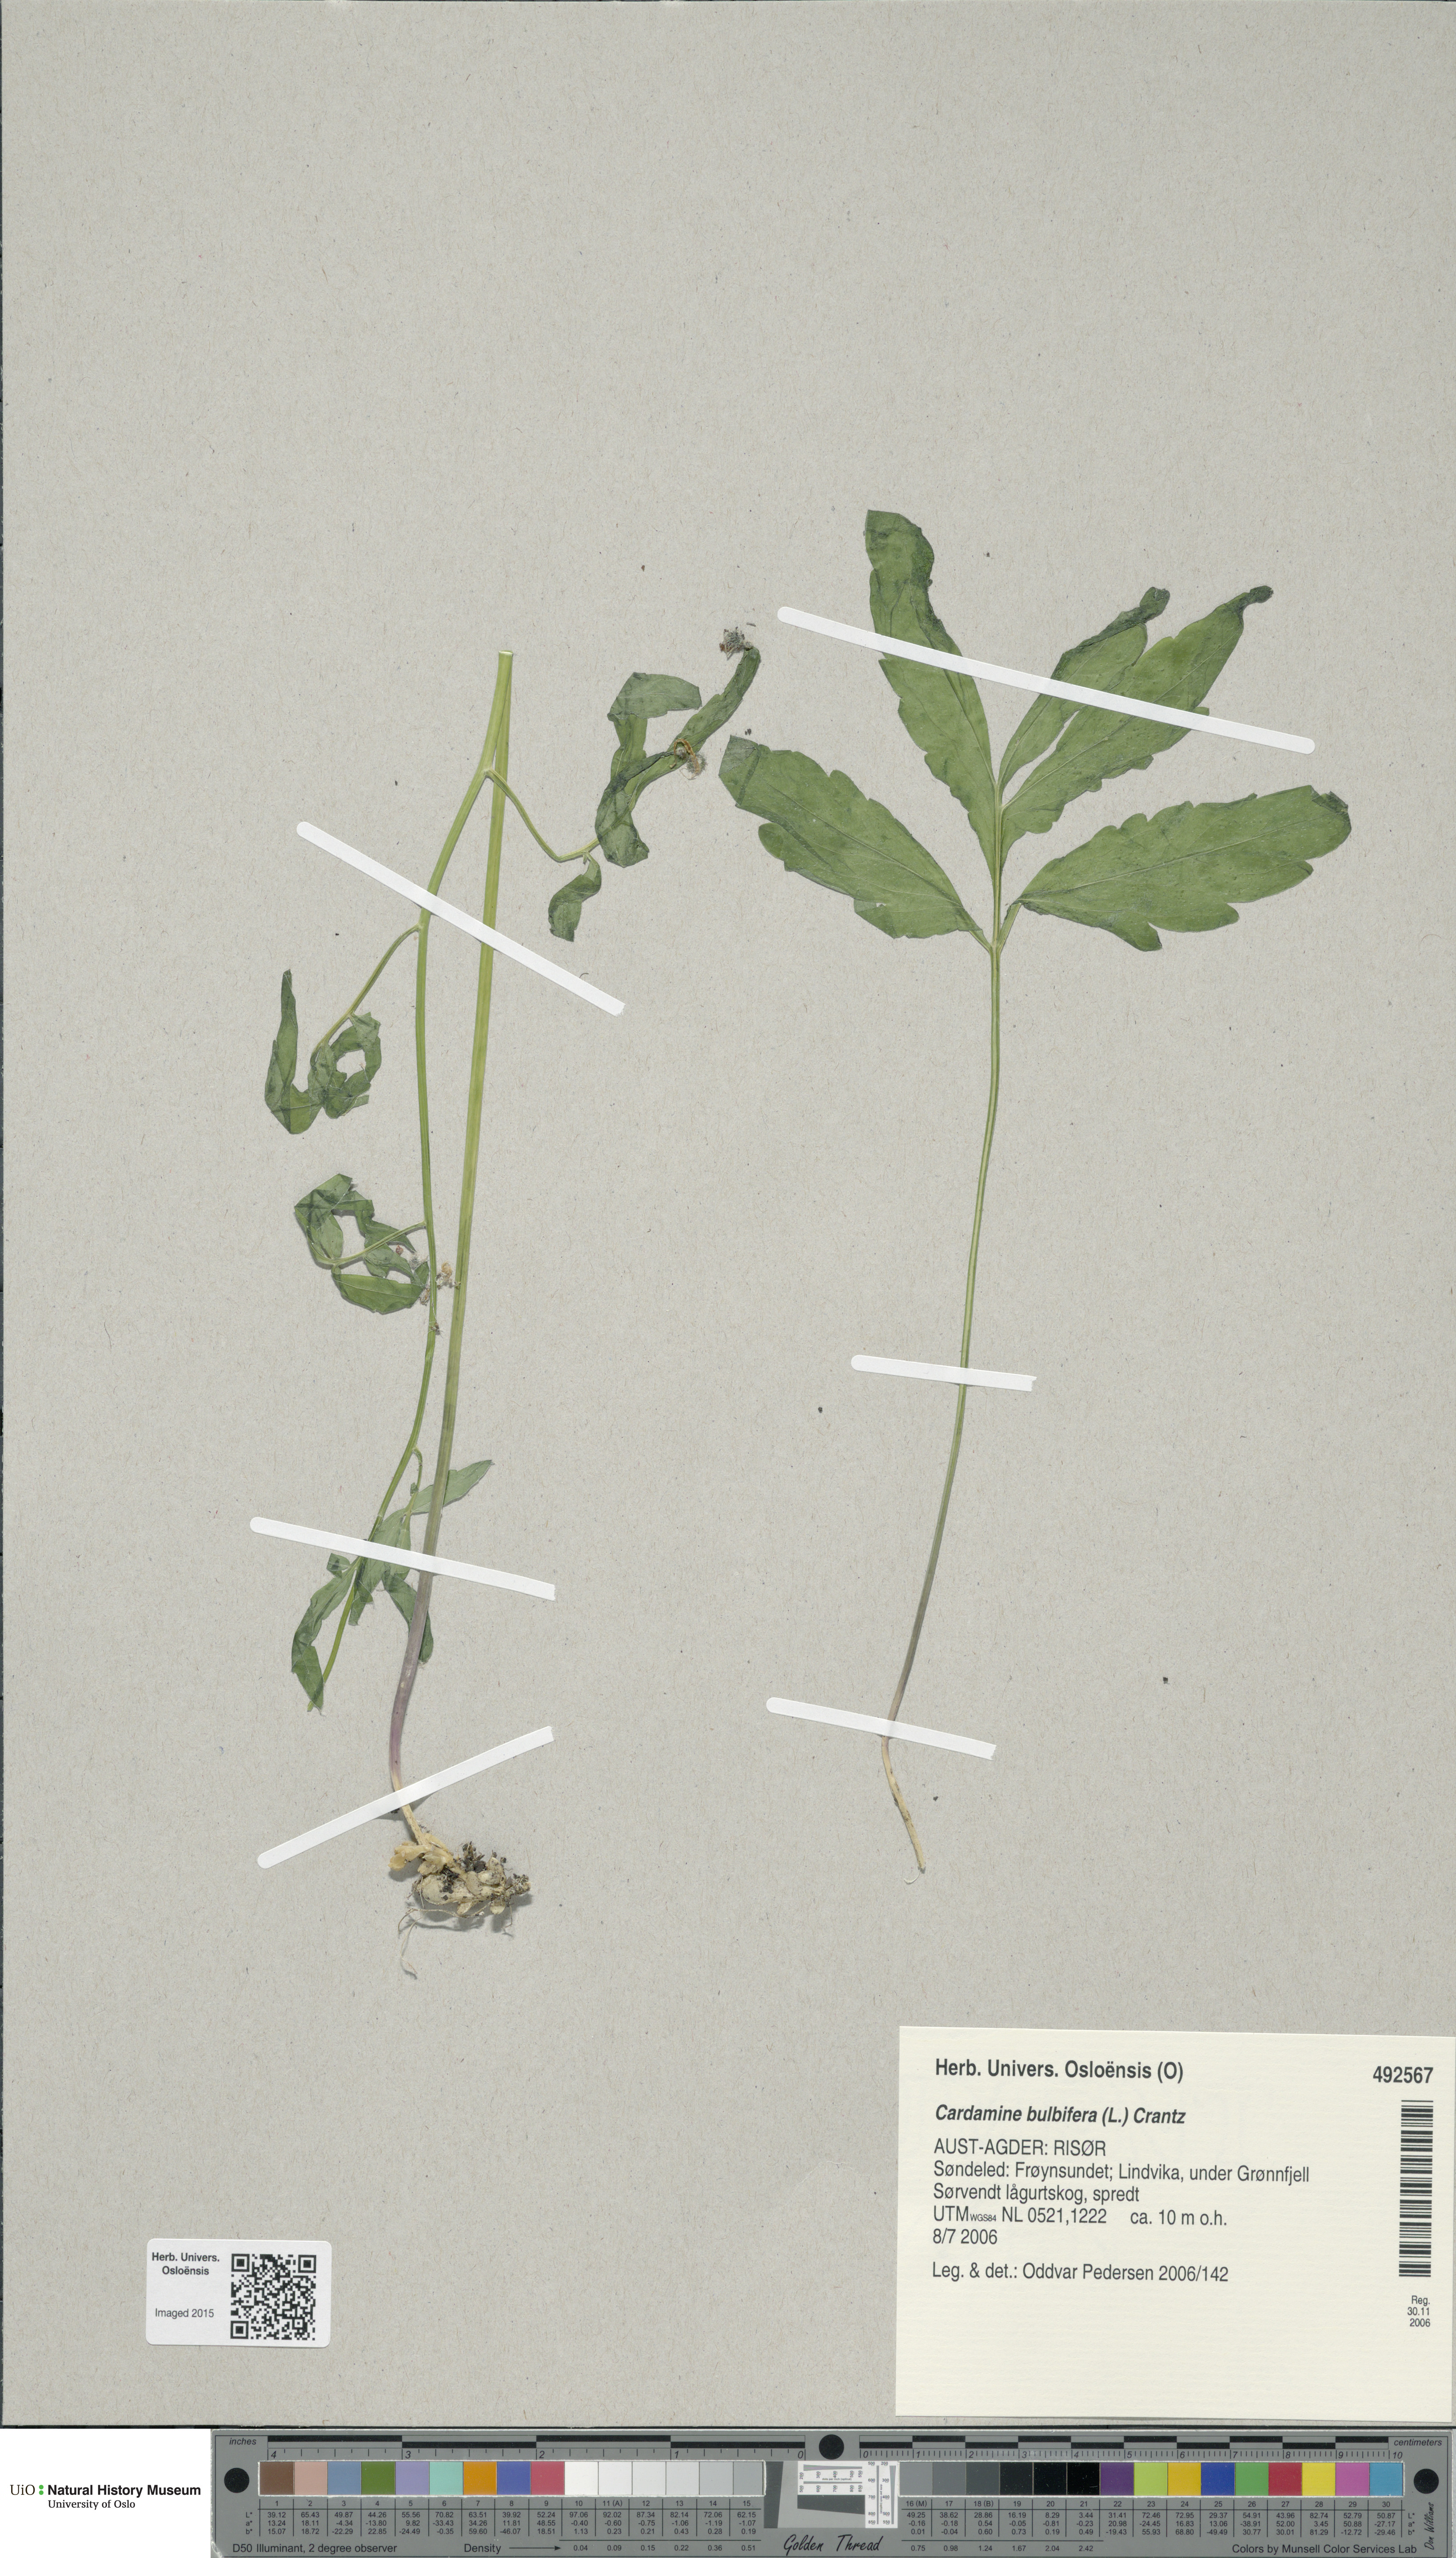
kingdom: Plantae
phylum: Tracheophyta
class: Magnoliopsida
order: Brassicales
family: Brassicaceae
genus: Cardamine
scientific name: Cardamine bulbifera
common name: Coralroot bittercress
